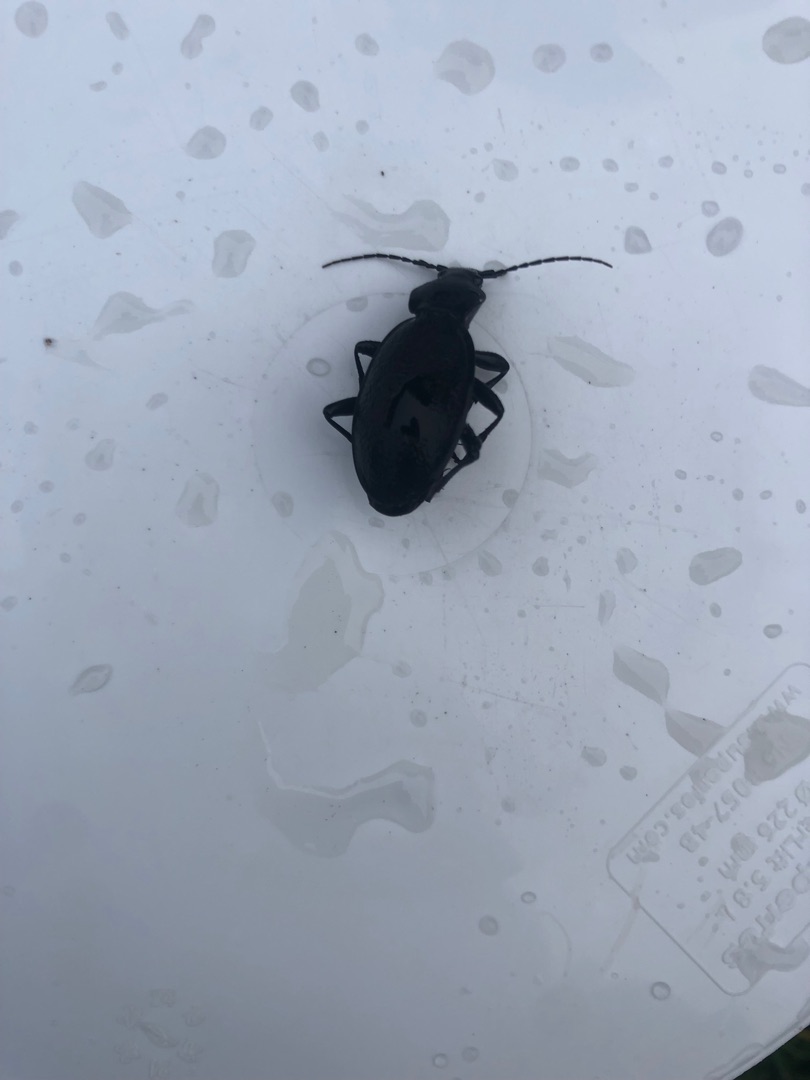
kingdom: Animalia
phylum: Arthropoda
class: Insecta
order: Coleoptera
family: Carabidae
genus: Carabus
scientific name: Carabus coriaceus
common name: Læderløber
